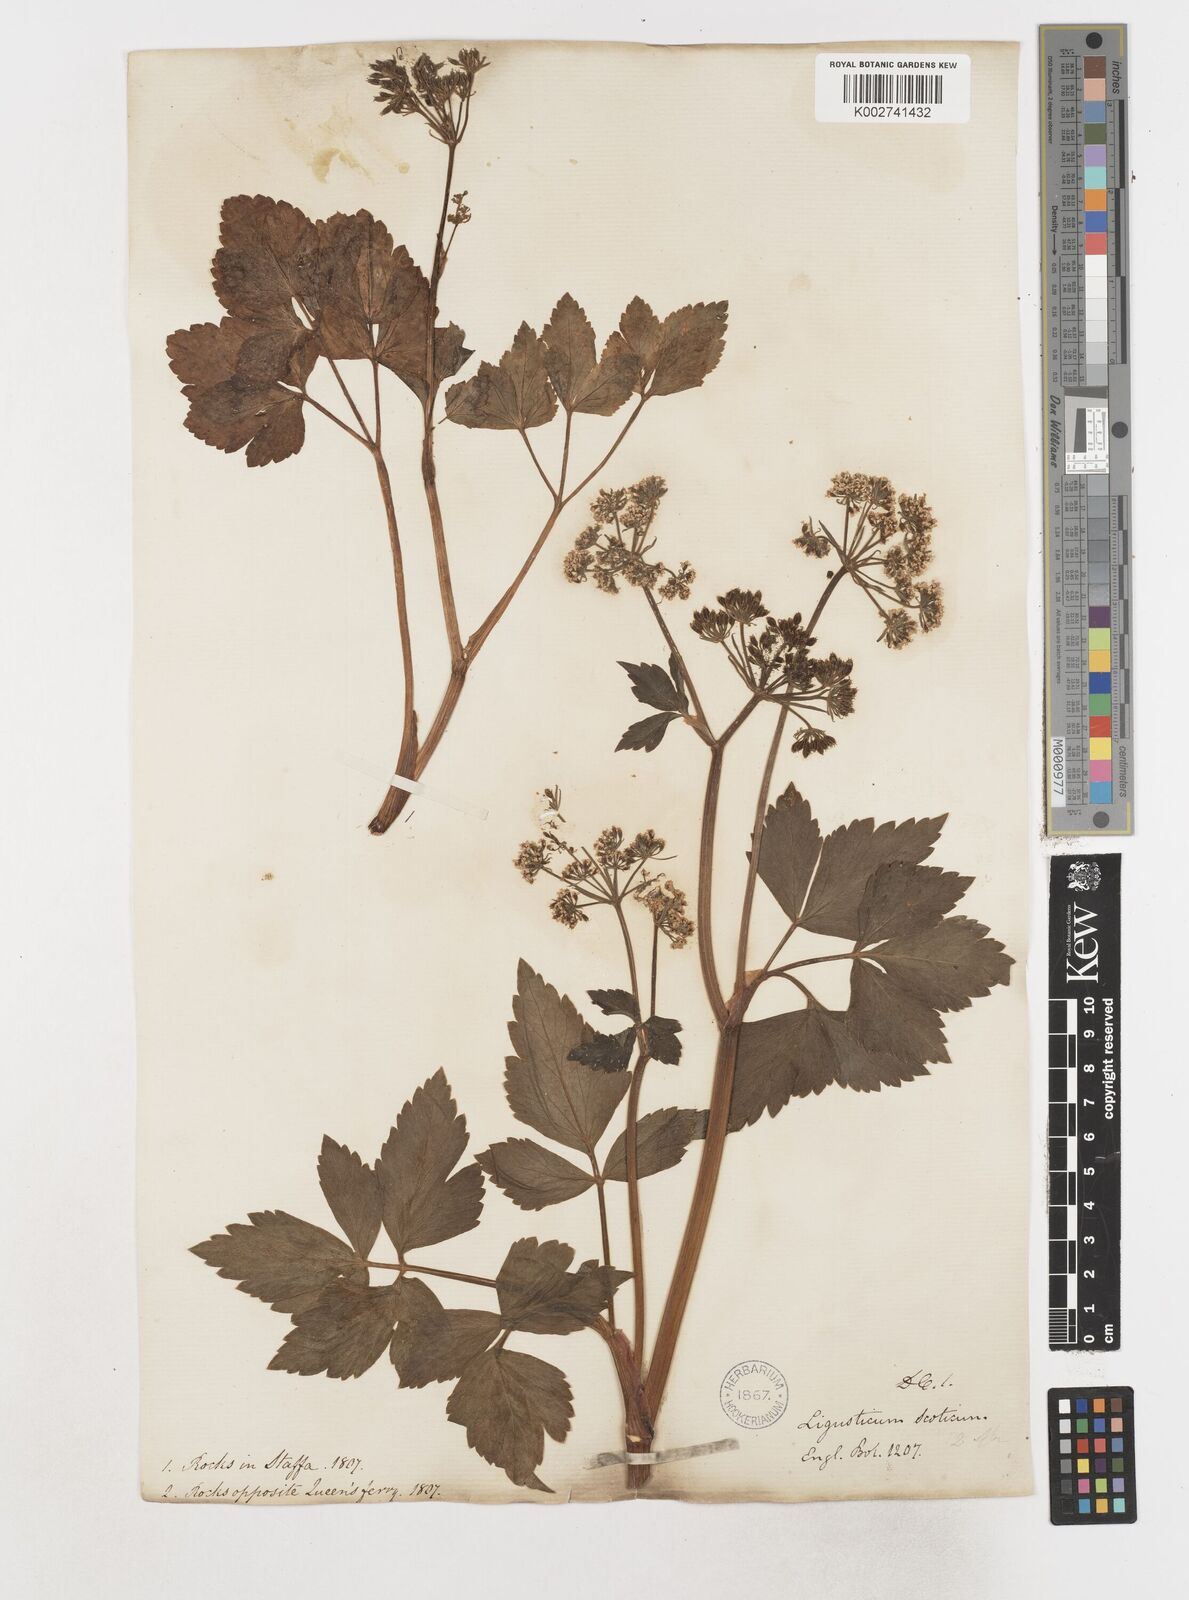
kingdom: Plantae
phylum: Tracheophyta
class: Magnoliopsida
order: Apiales
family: Apiaceae
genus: Ligusticum
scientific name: Ligusticum scothicum
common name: Beach lovage
